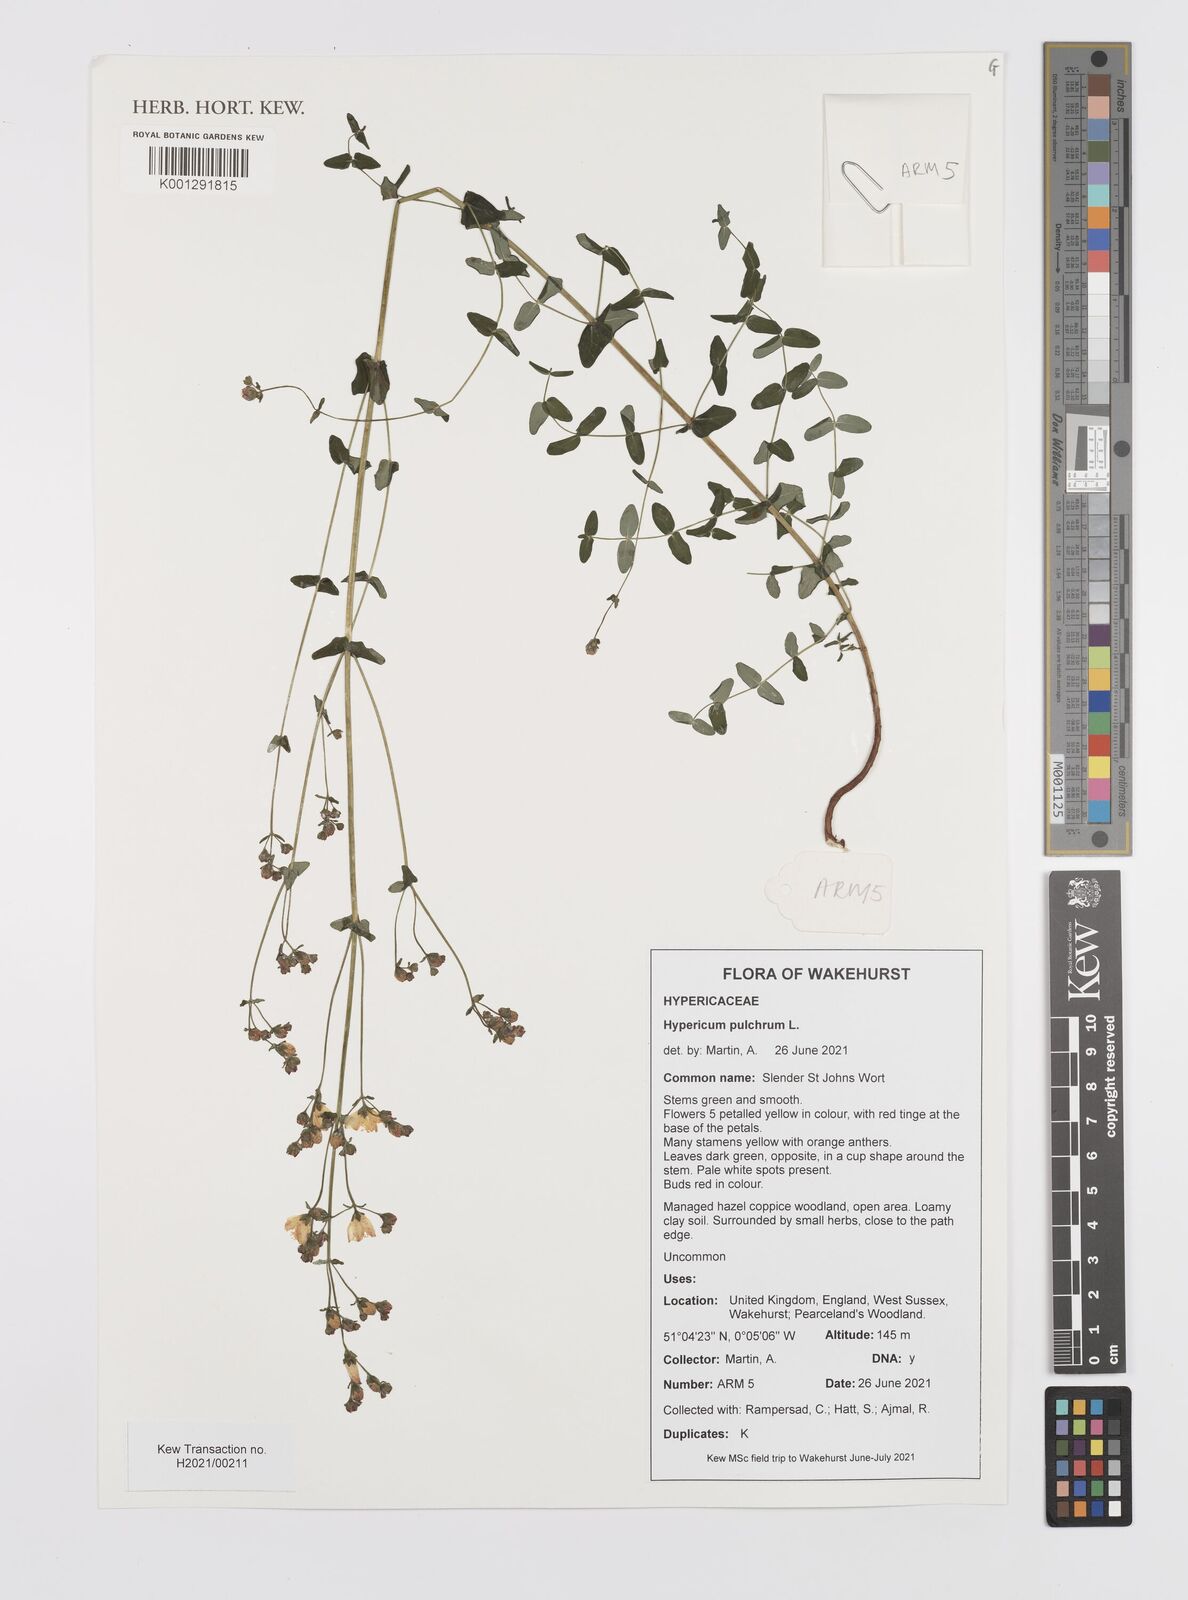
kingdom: Plantae
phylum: Tracheophyta
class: Magnoliopsida
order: Malpighiales
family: Hypericaceae
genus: Hypericum
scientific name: Hypericum pulchrum
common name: Slender st. john's-wort
